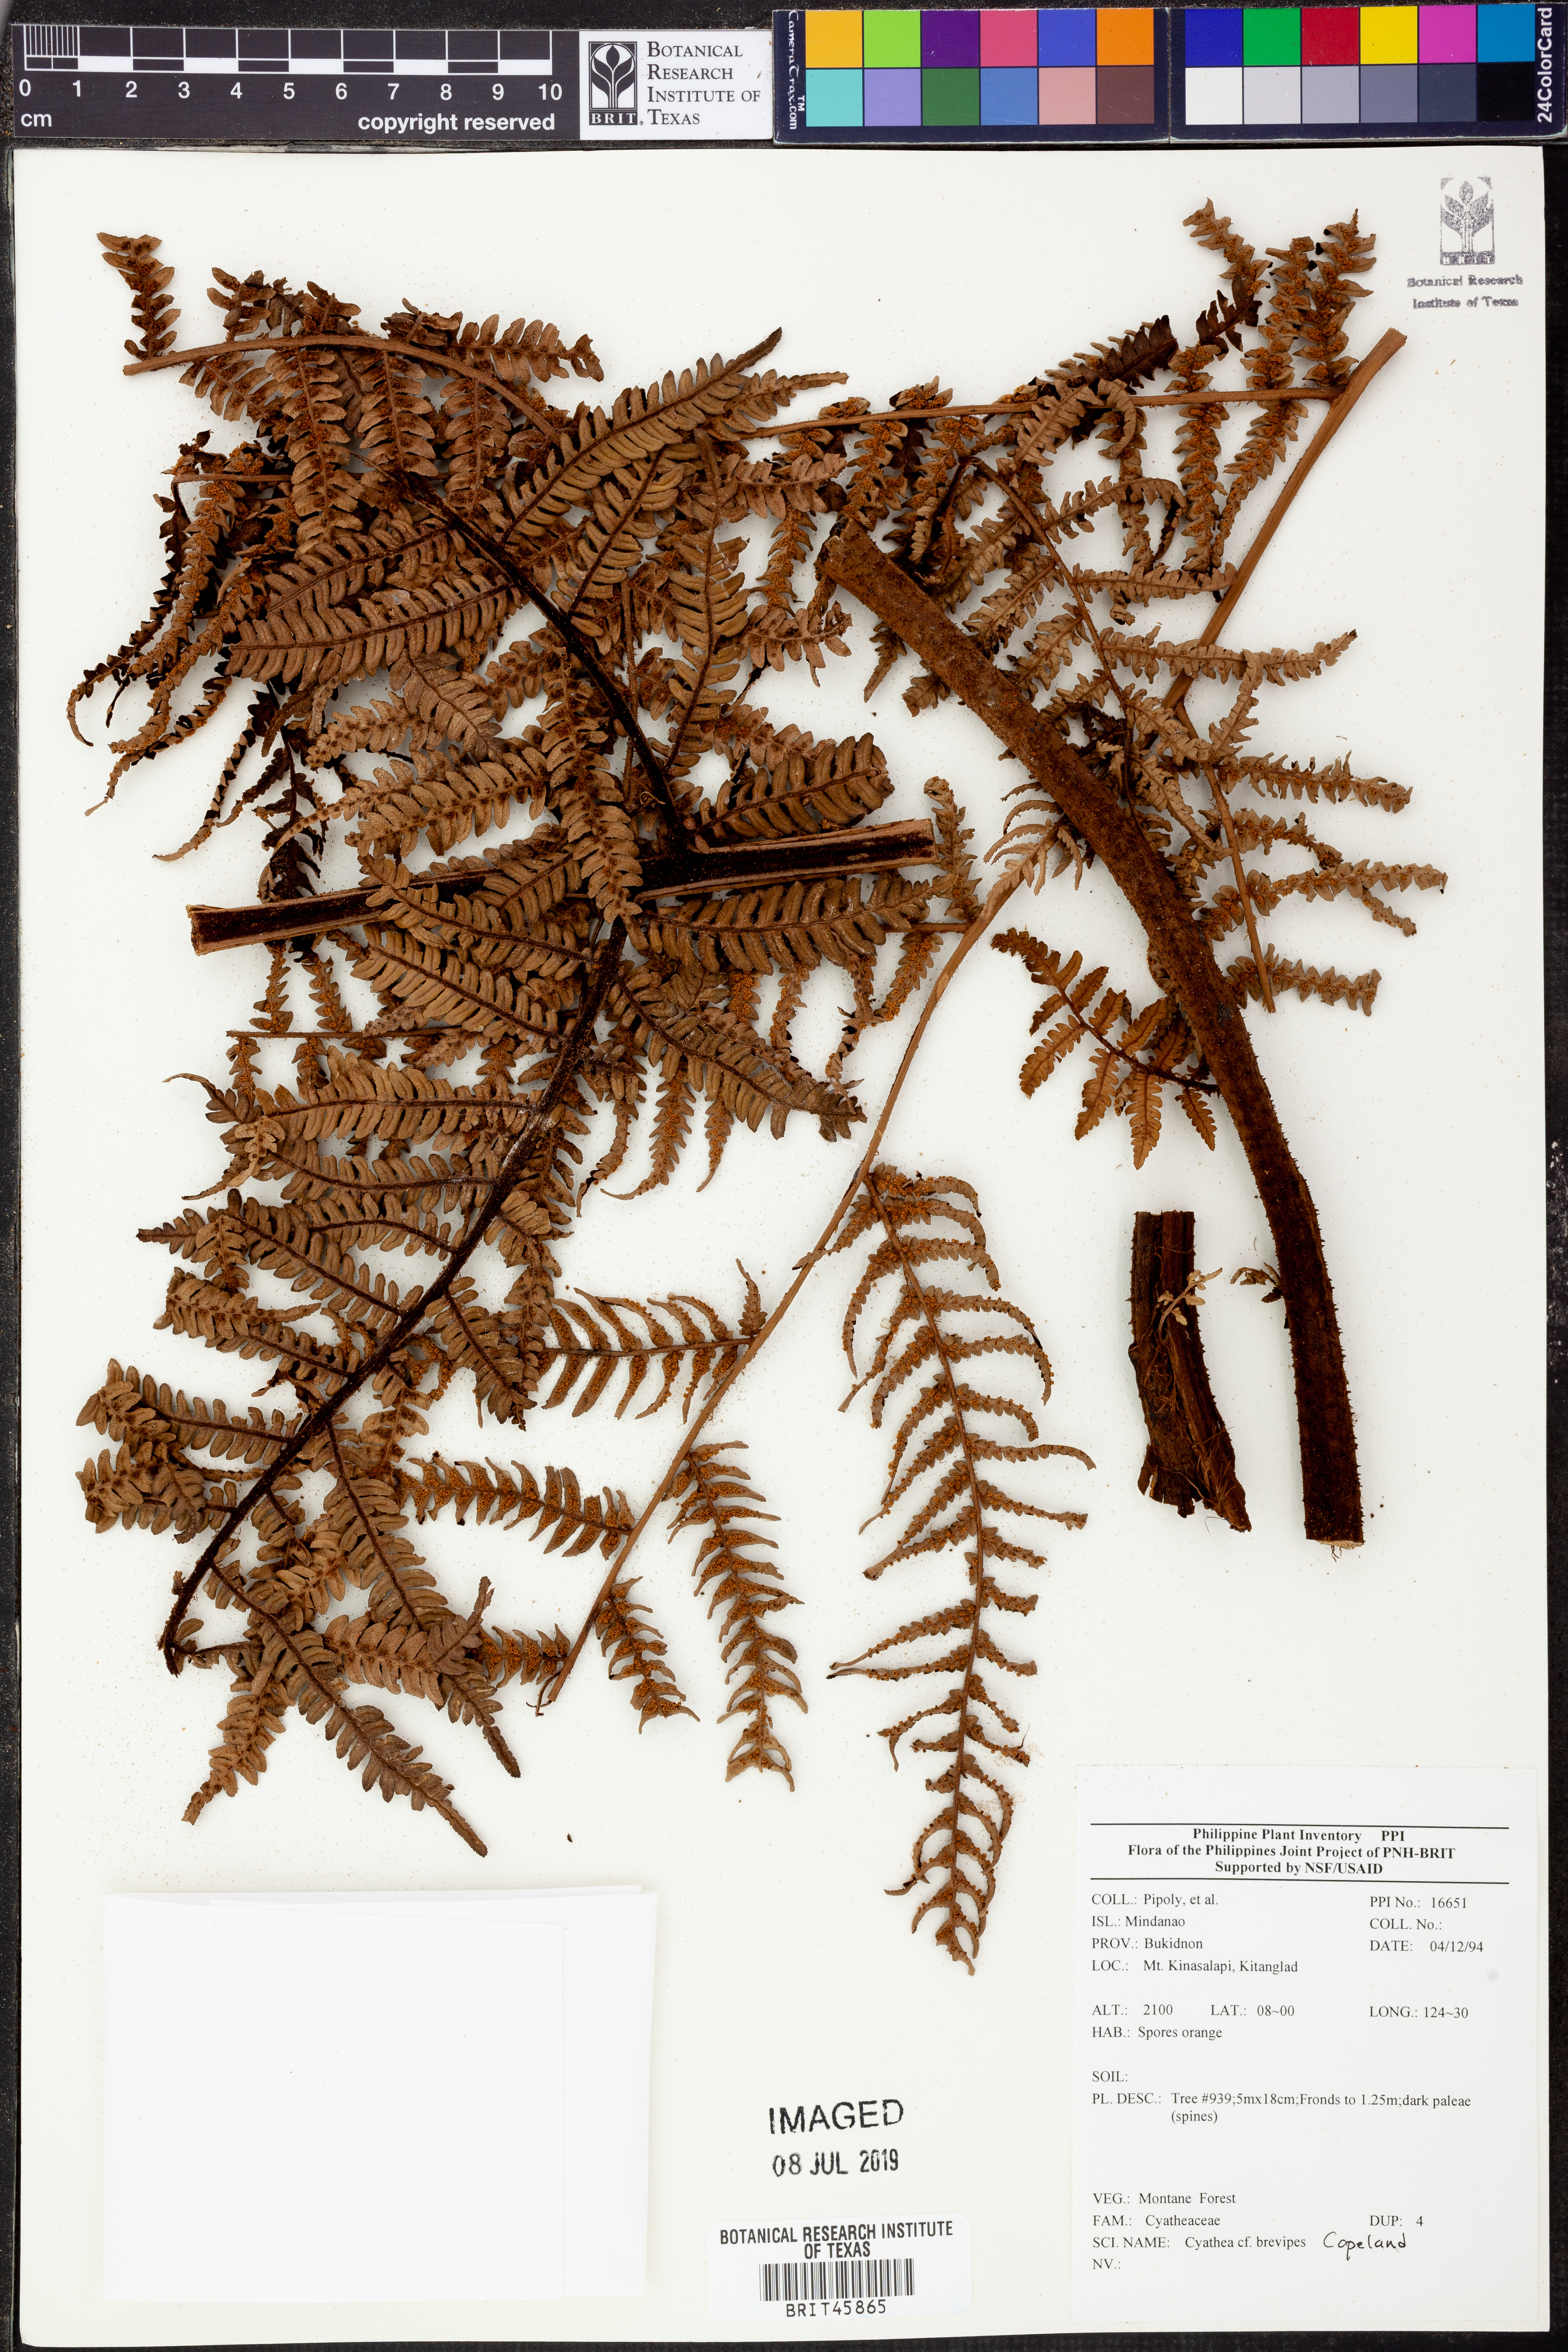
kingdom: Plantae
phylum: Tracheophyta
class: Polypodiopsida
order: Cyatheales
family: Cyatheaceae
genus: Alsophila
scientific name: Alsophila speciosa
